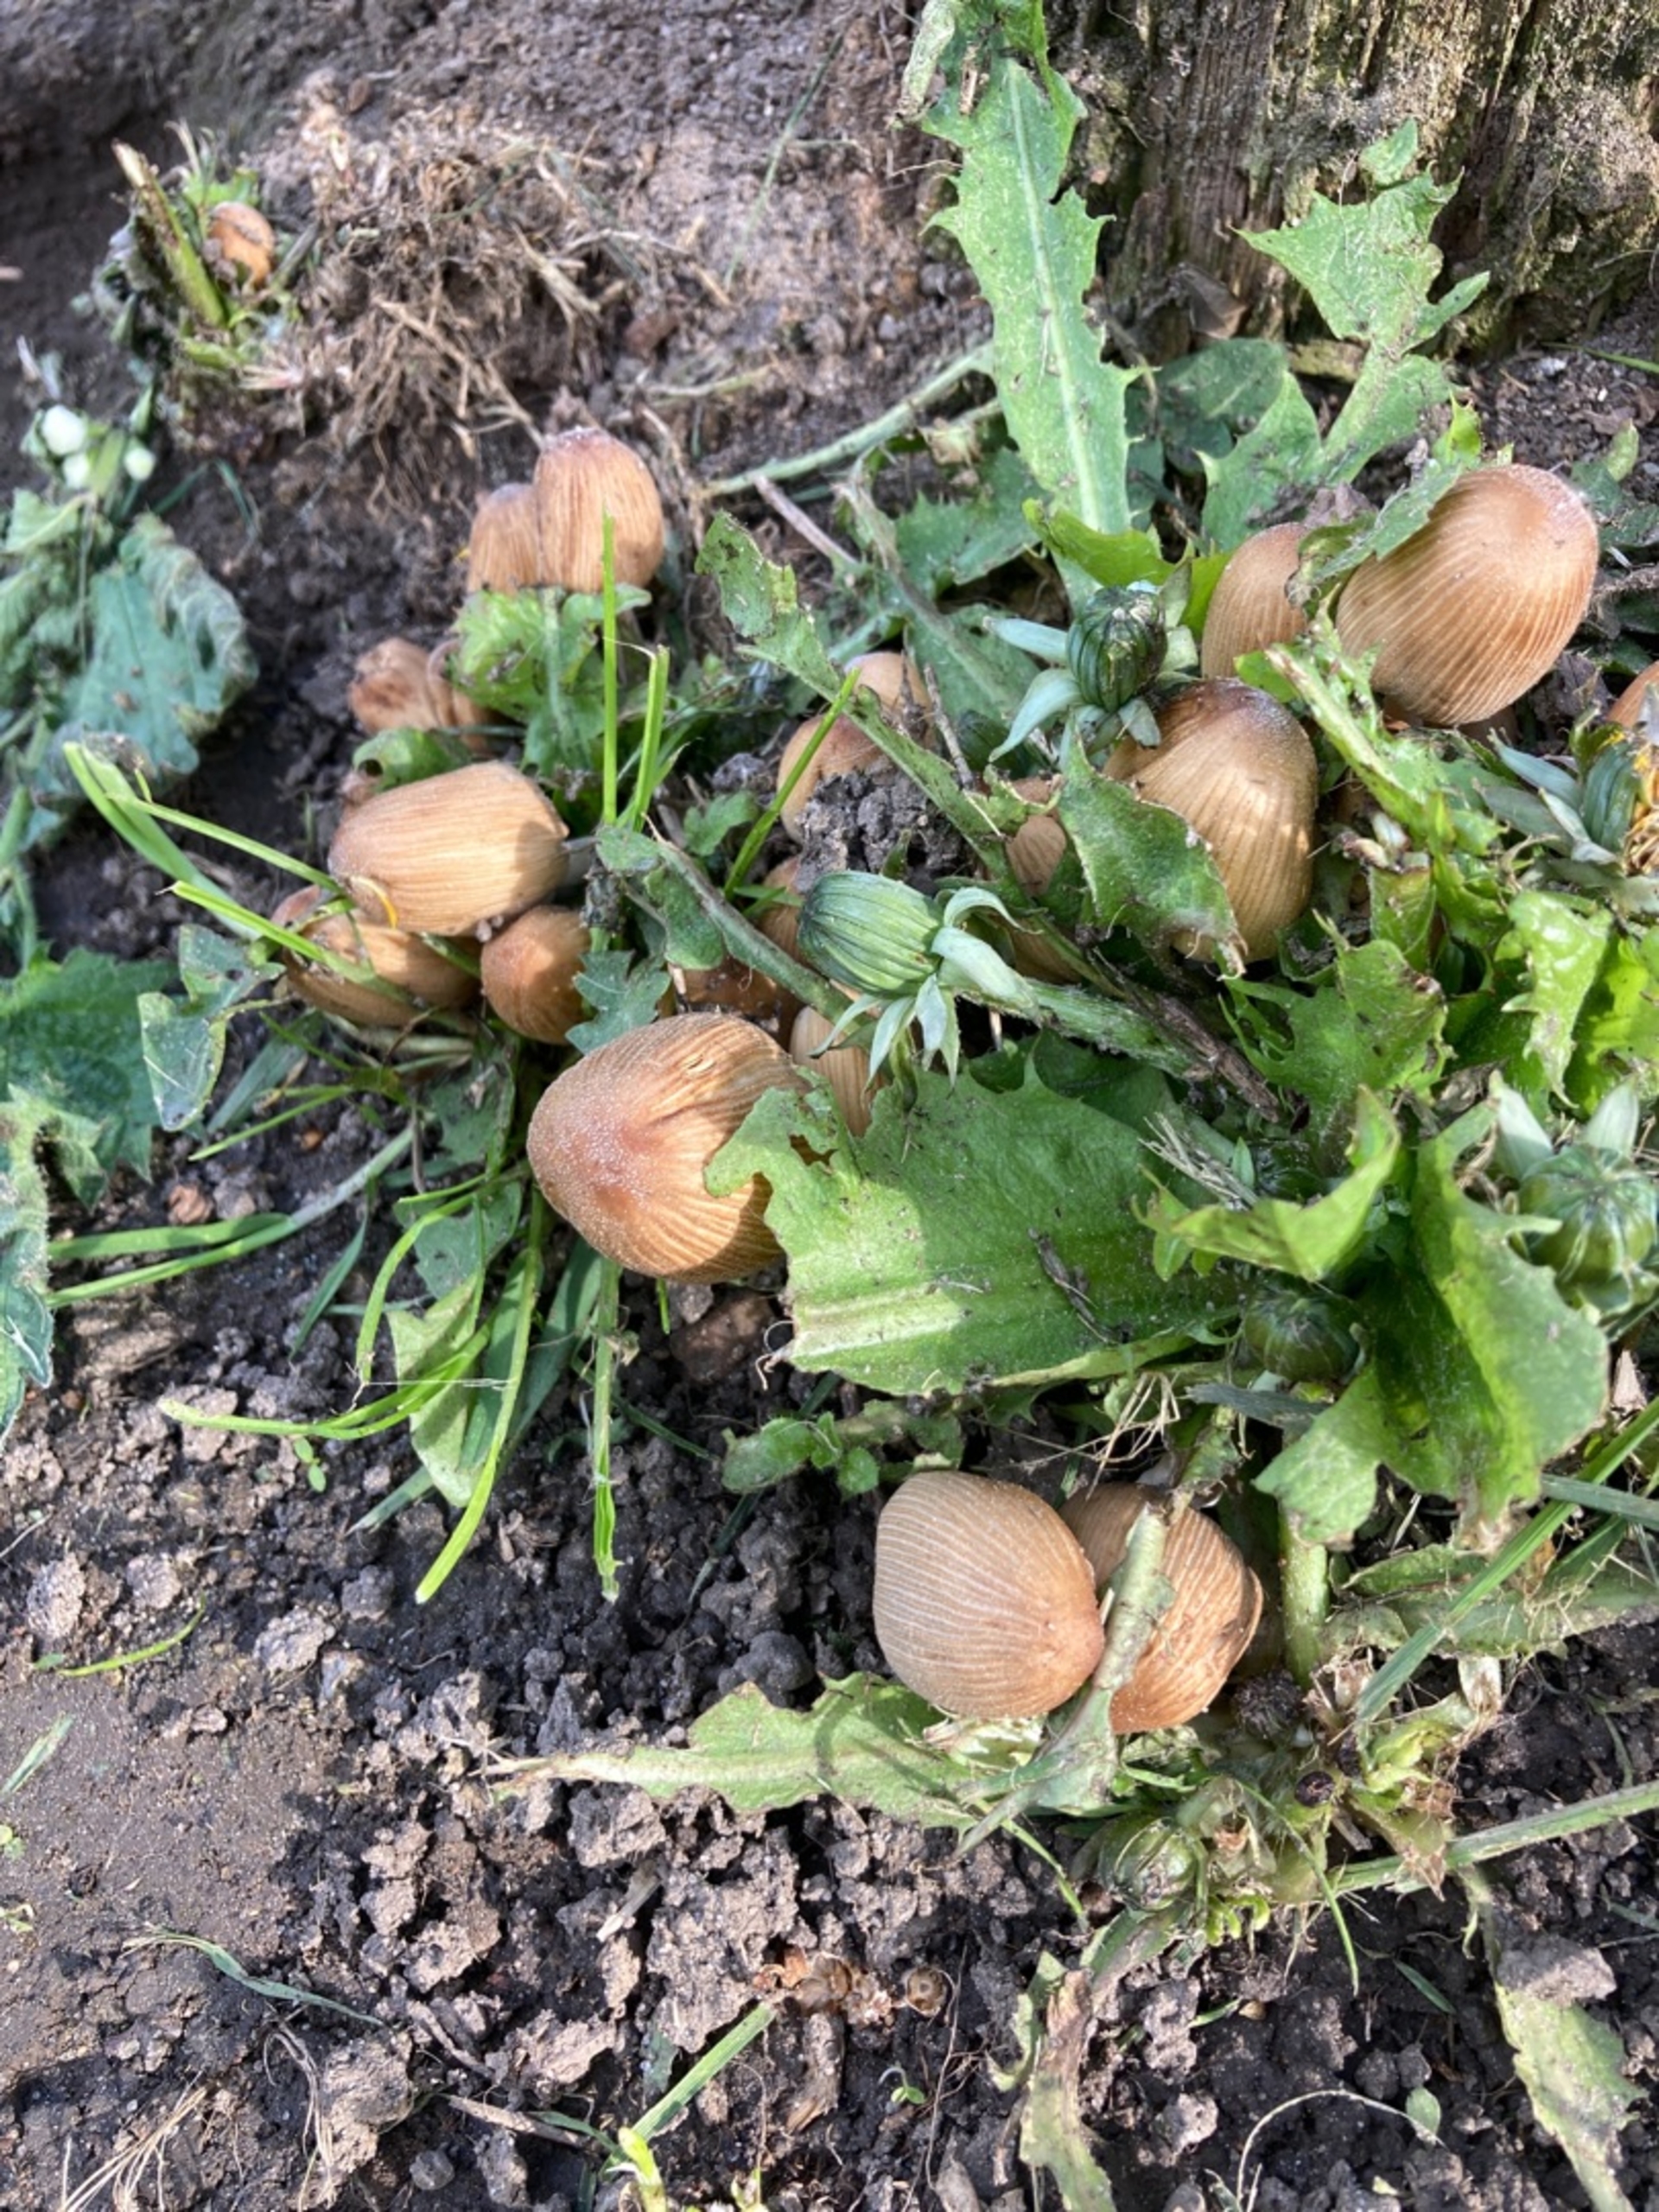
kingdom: Fungi
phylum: Basidiomycota
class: Agaricomycetes
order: Agaricales
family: Psathyrellaceae
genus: Coprinellus
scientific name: Coprinellus micaceus
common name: Glimmer-blækhat
